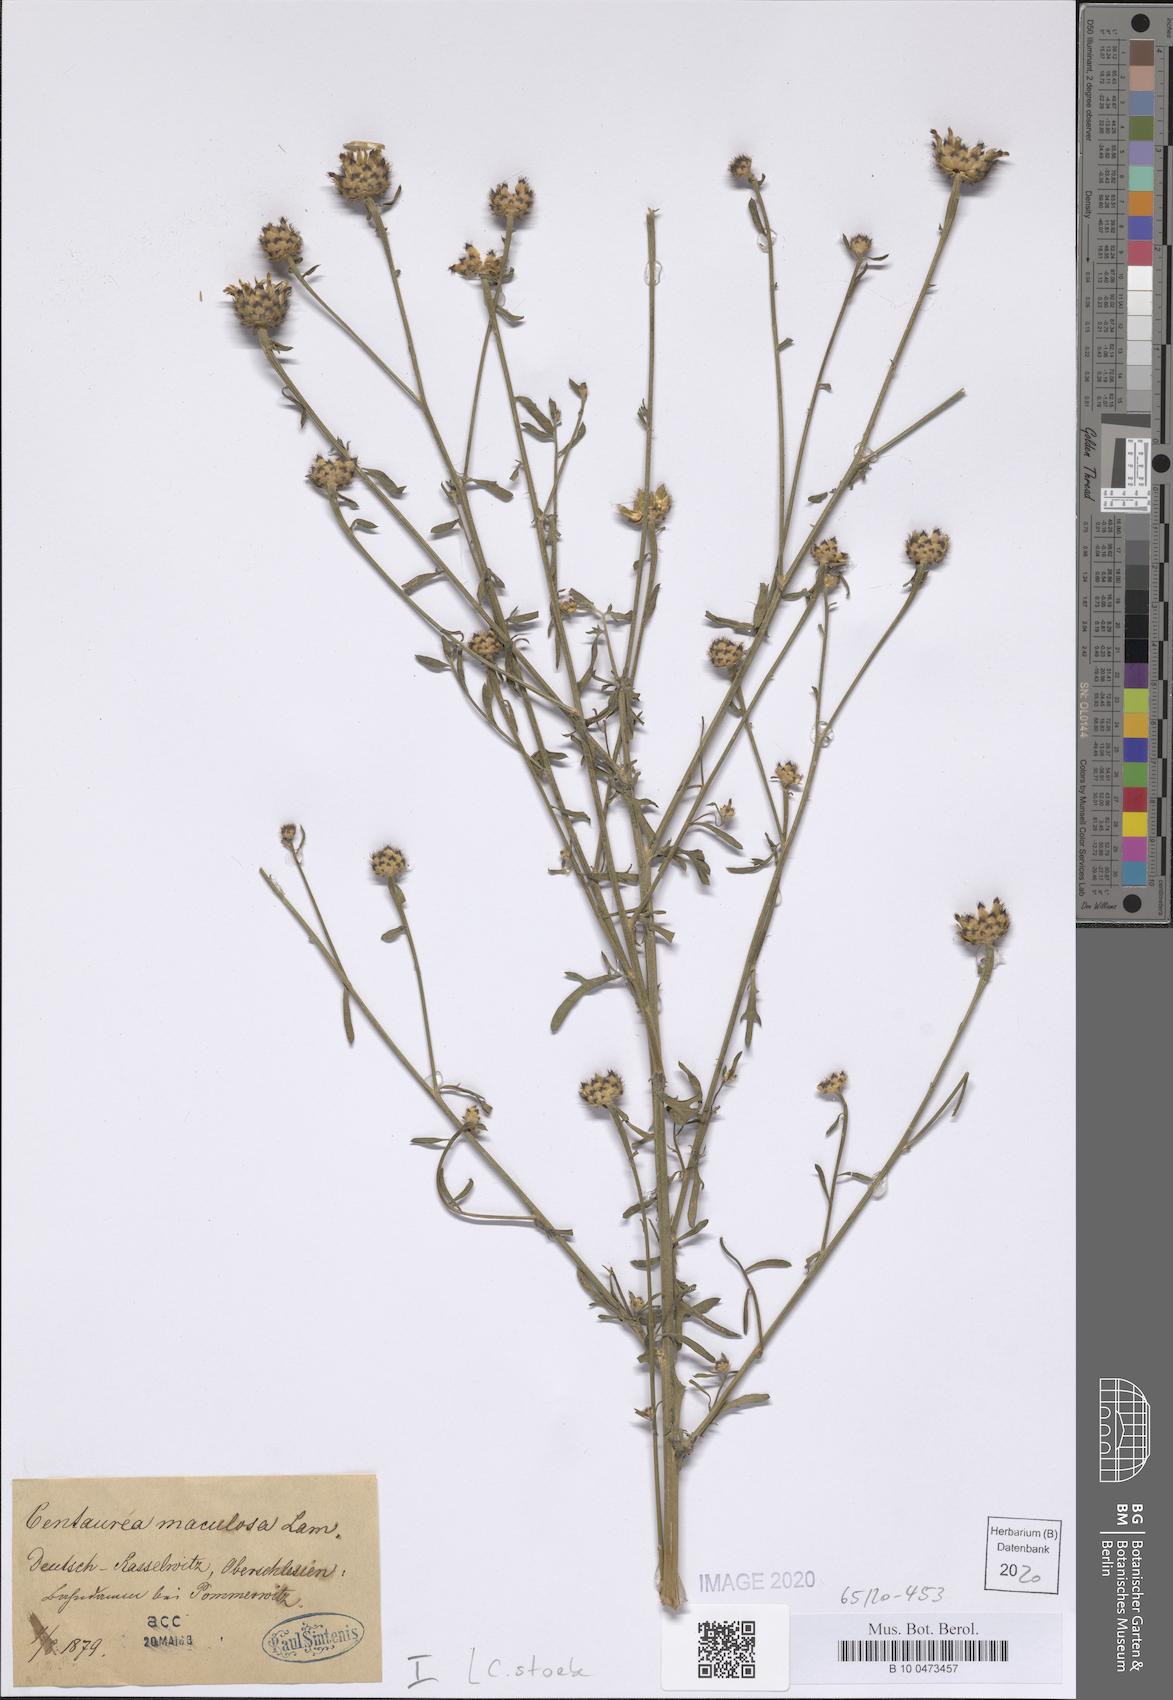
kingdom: Plantae
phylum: Tracheophyta
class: Magnoliopsida
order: Asterales
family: Asteraceae
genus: Centaurea
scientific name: Centaurea stoebe
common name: Spotted knapweed
